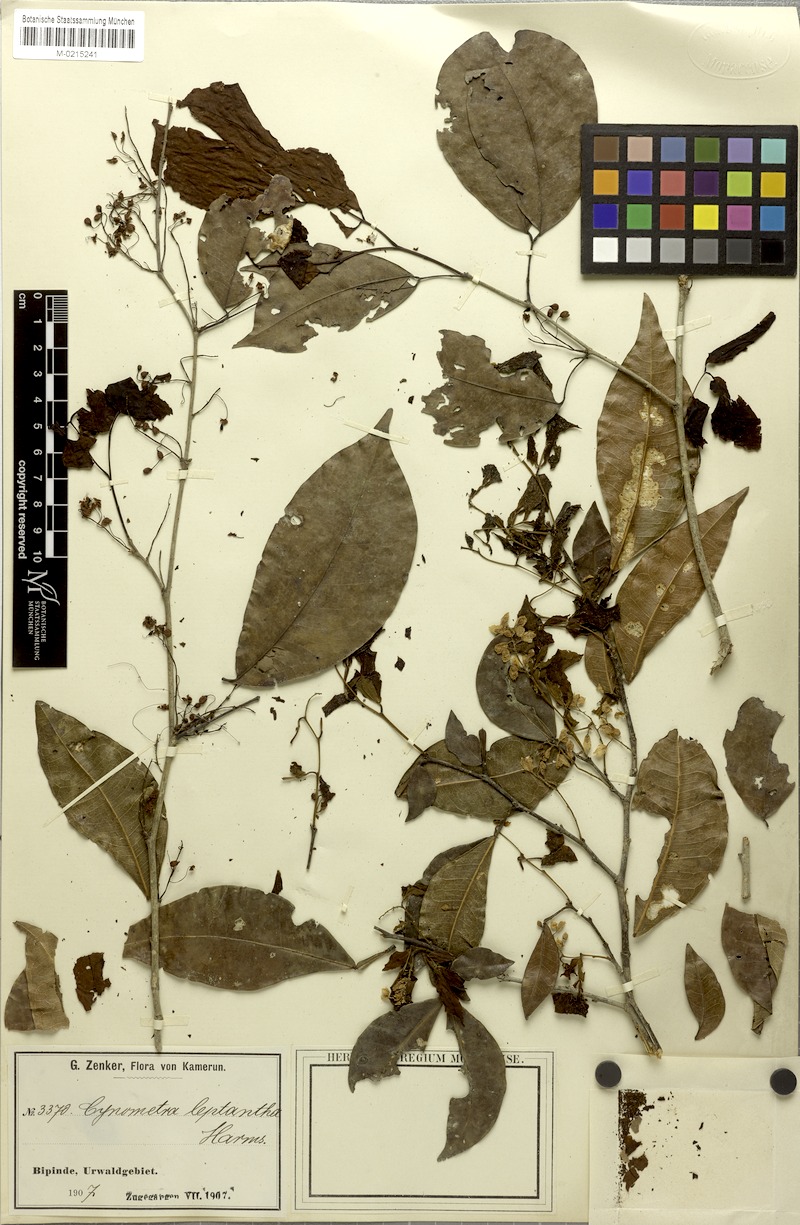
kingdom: Plantae
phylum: Tracheophyta
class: Magnoliopsida
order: Fabales
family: Fabaceae
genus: Lebruniodendron
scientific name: Lebruniodendron leptanthum
